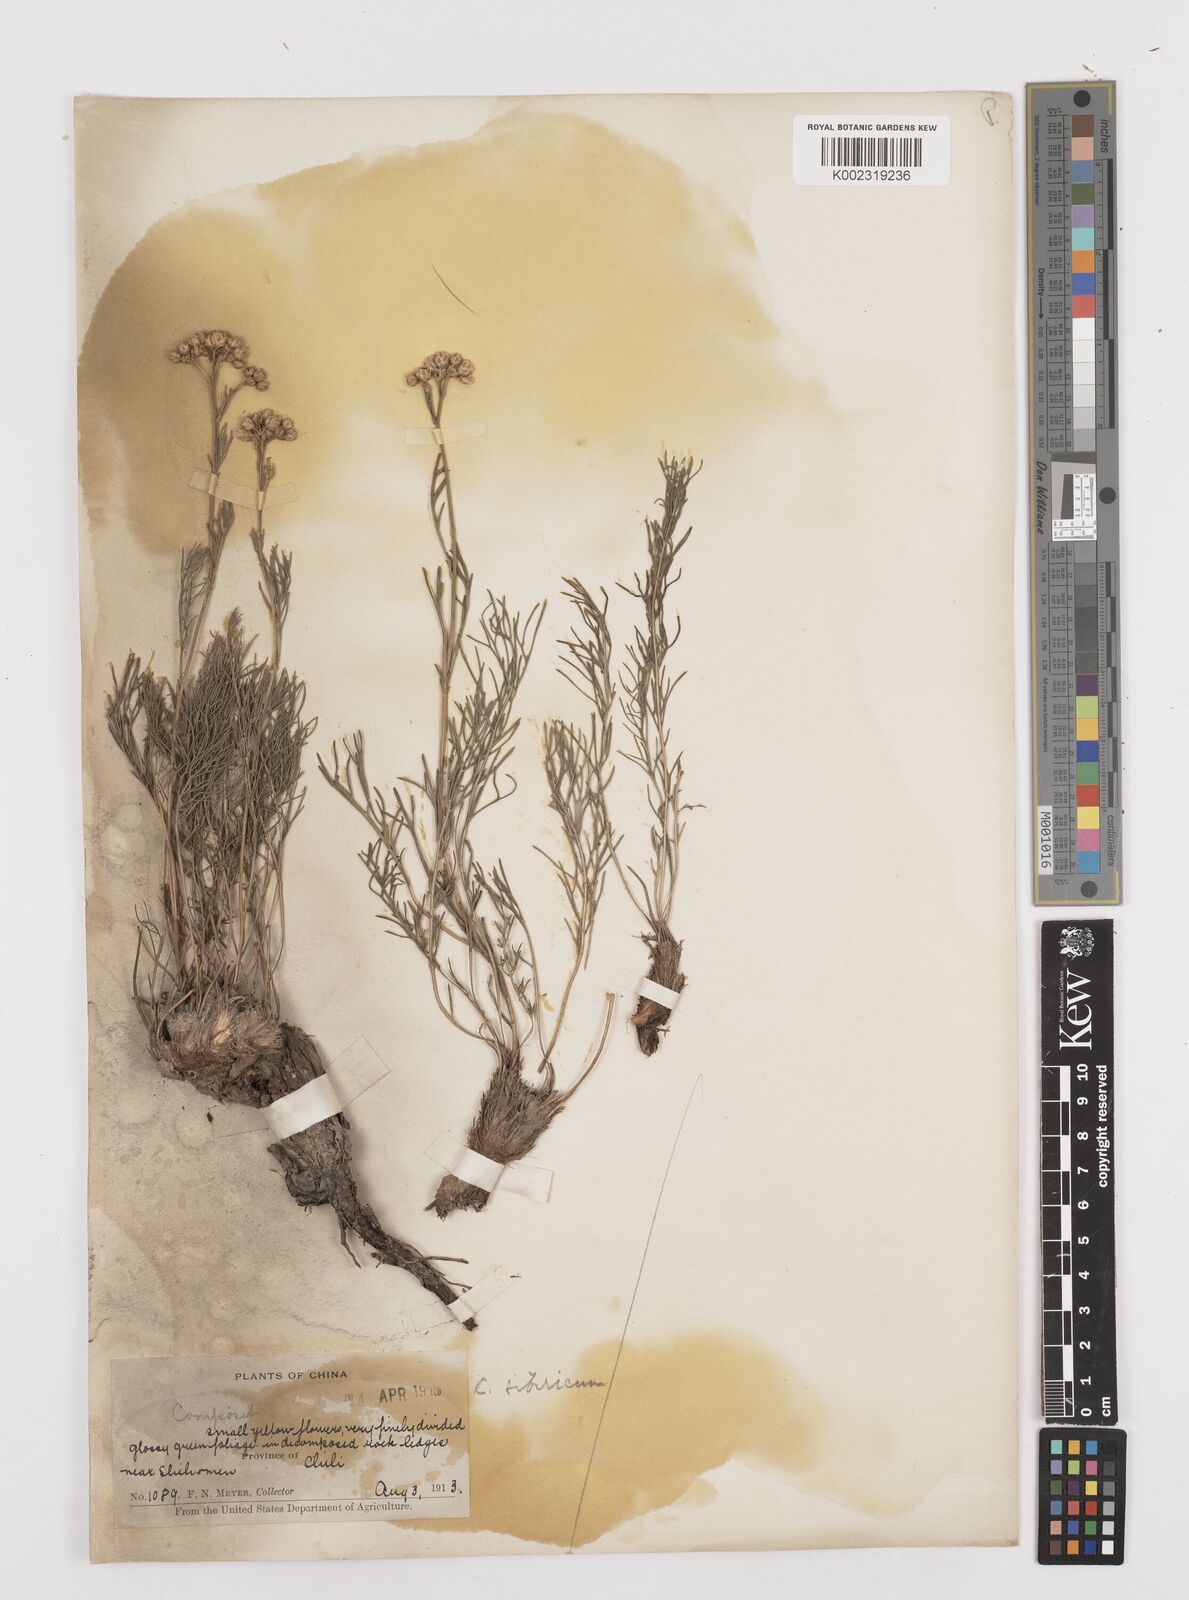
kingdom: Plantae
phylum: Tracheophyta
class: Magnoliopsida
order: Asterales
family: Asteraceae
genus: Filifolium
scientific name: Filifolium sibiricum
